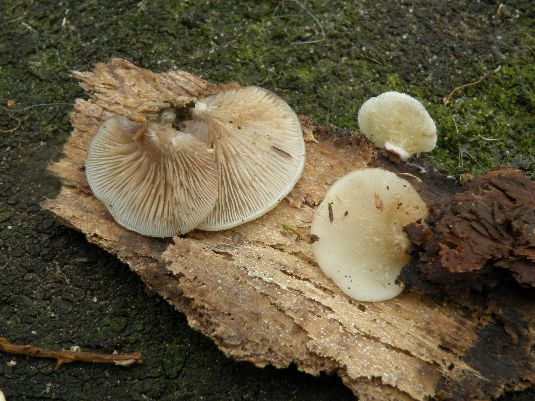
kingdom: Fungi
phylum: Basidiomycota
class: Agaricomycetes
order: Agaricales
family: Crepidotaceae
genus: Crepidotus
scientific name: Crepidotus mollis
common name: blød muslingesvamp
